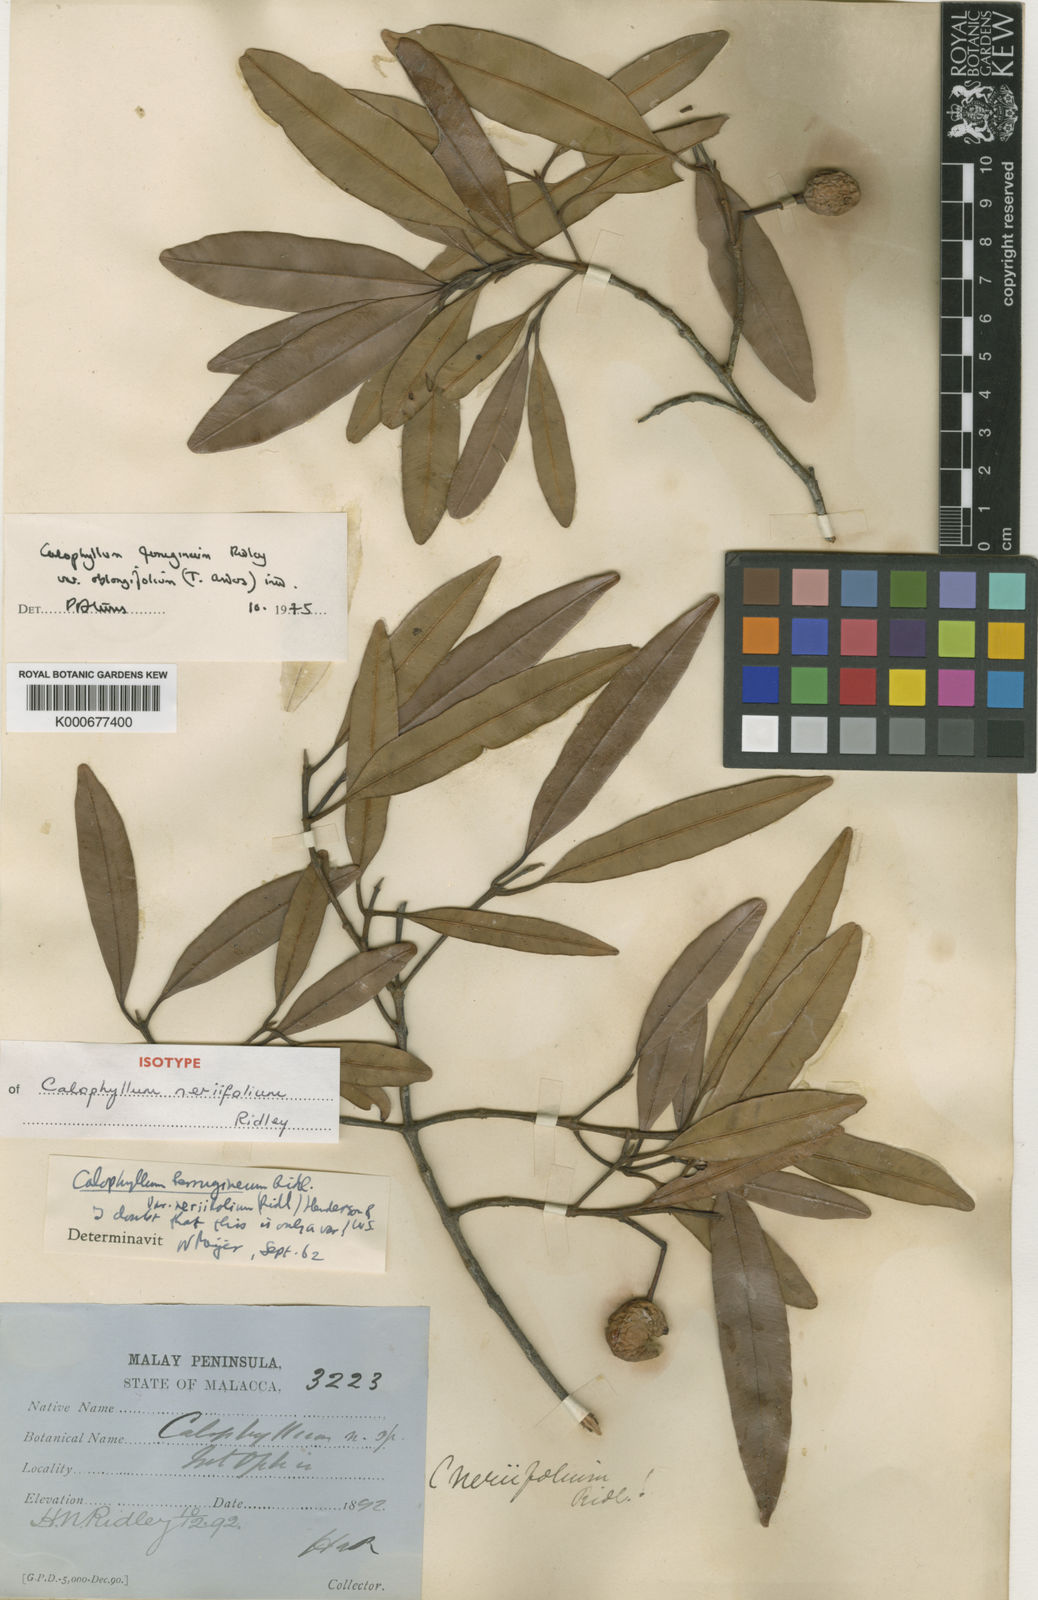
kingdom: Plantae
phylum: Tracheophyta
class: Magnoliopsida
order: Malpighiales
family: Calophyllaceae
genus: Calophyllum
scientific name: Calophyllum ferrugineum
